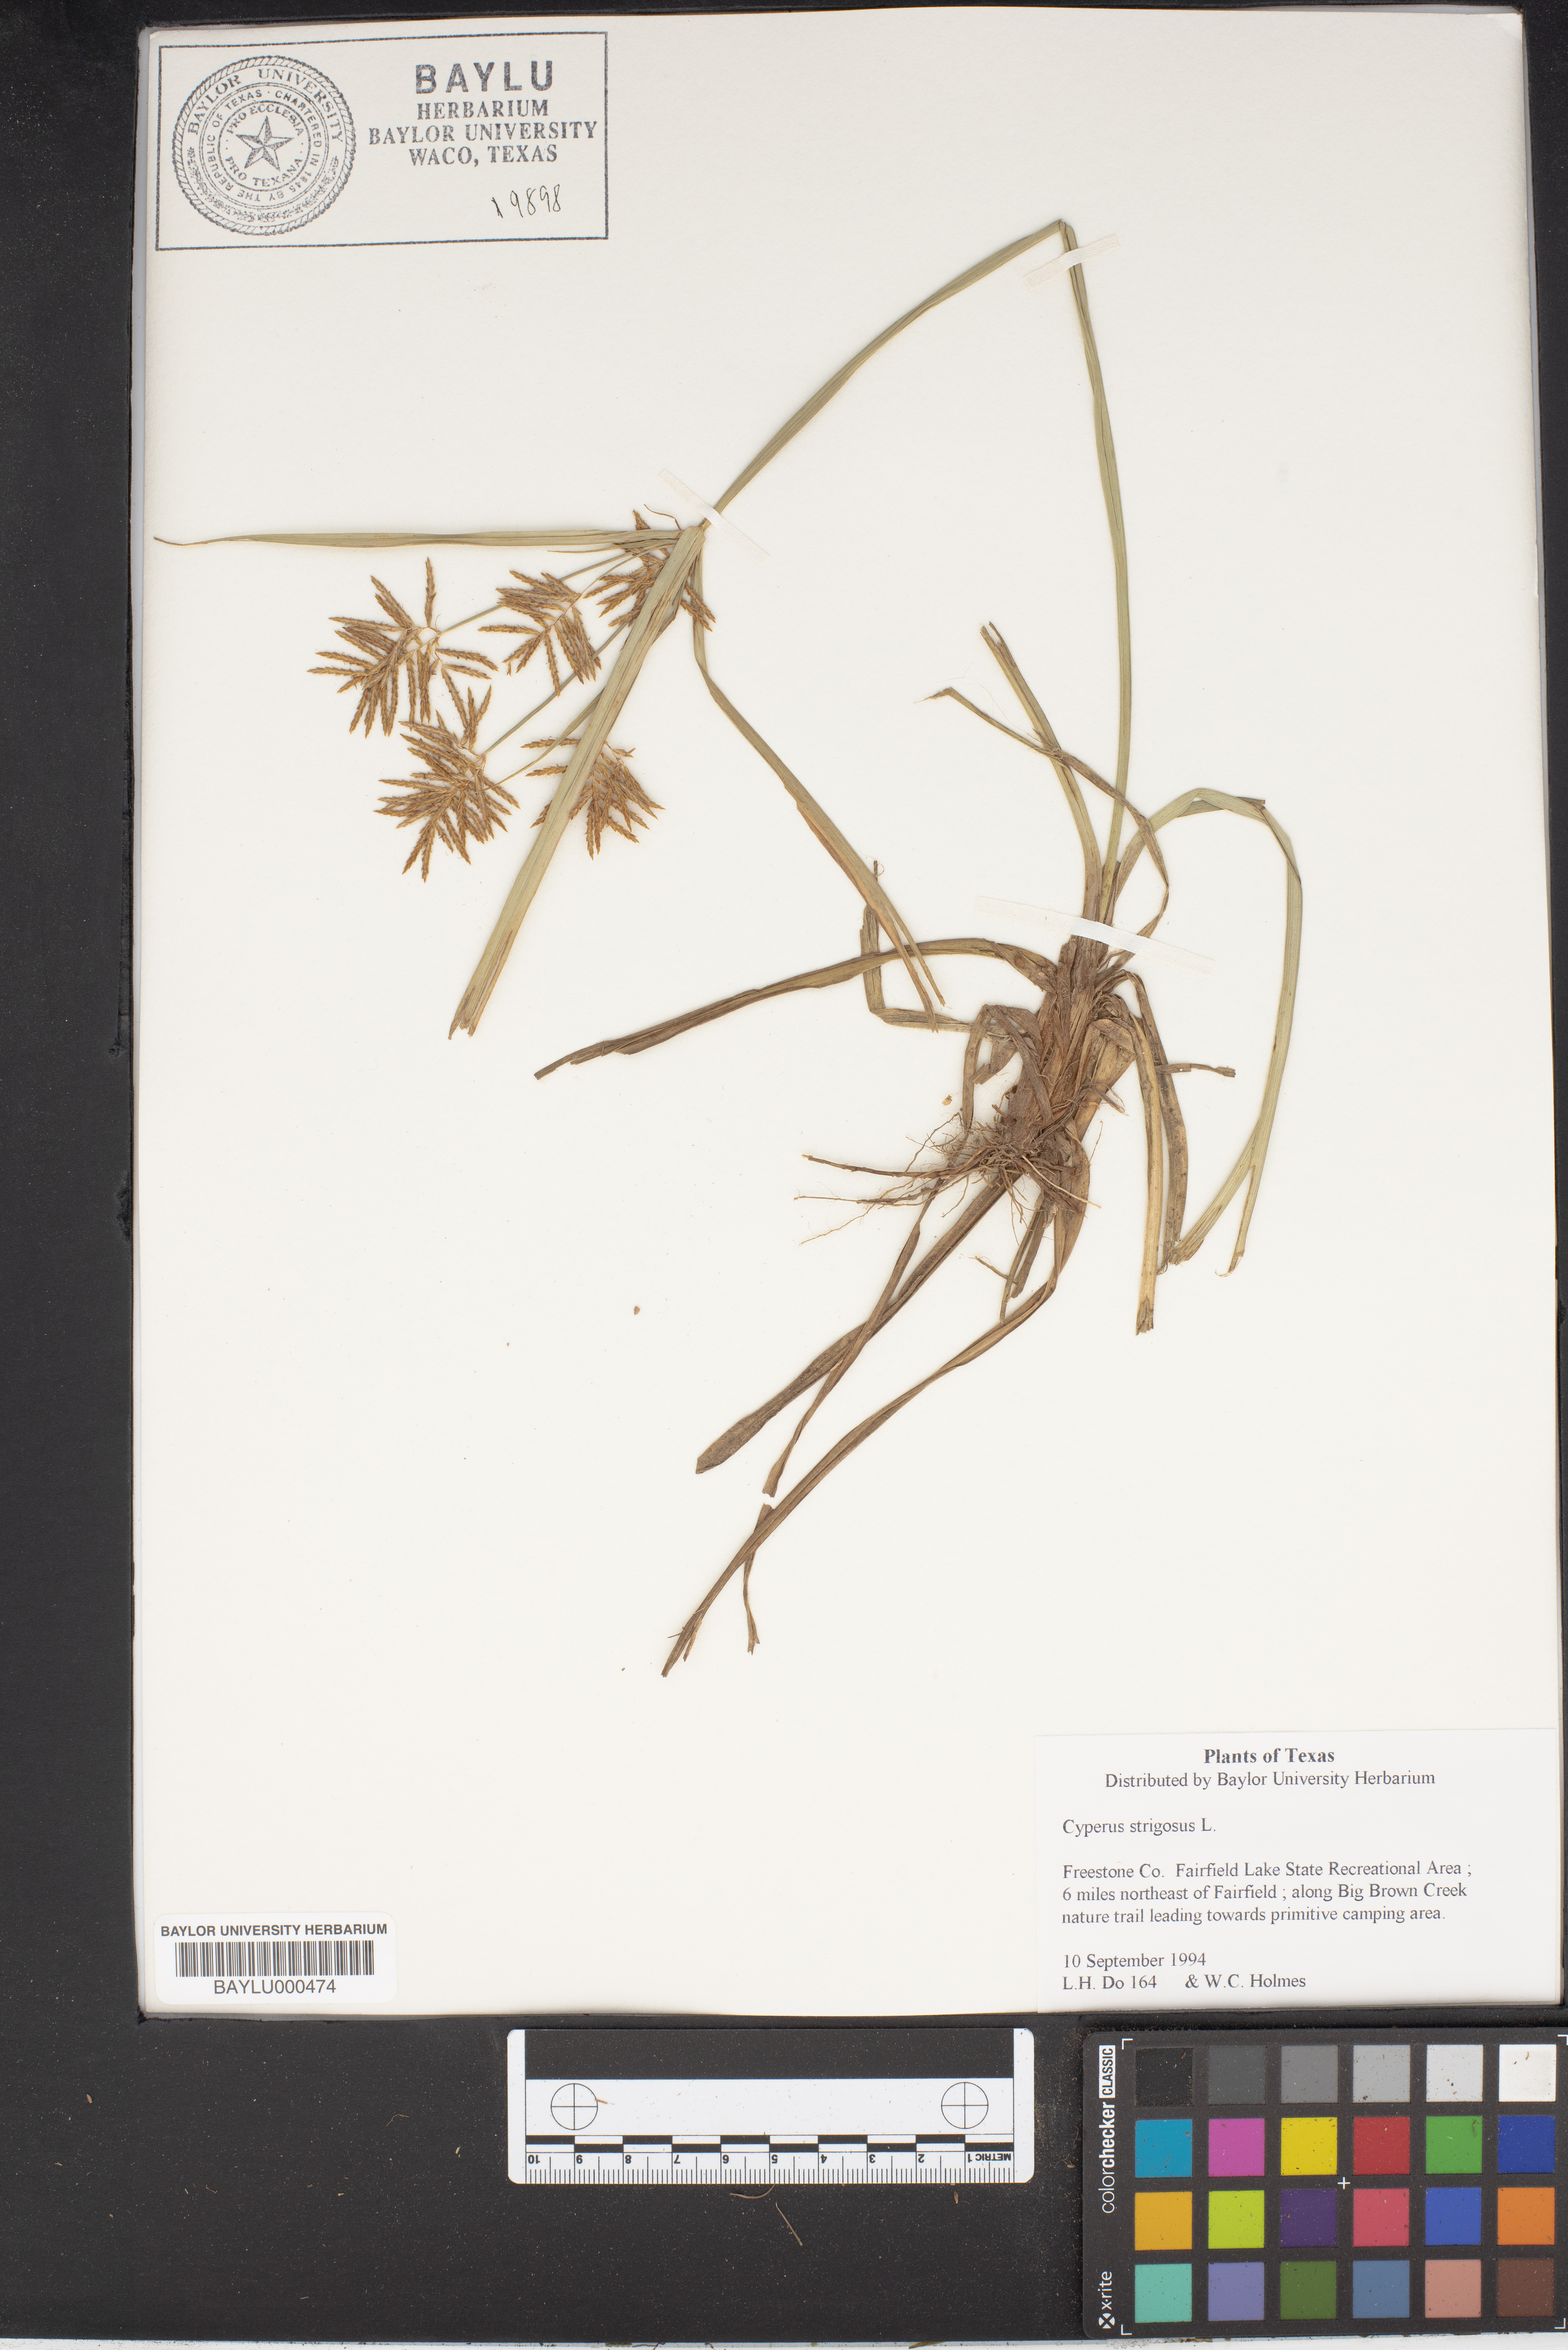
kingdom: Plantae
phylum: Tracheophyta
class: Liliopsida
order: Poales
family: Cyperaceae
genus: Cyperus
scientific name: Cyperus strigosus
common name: False nutsedge
